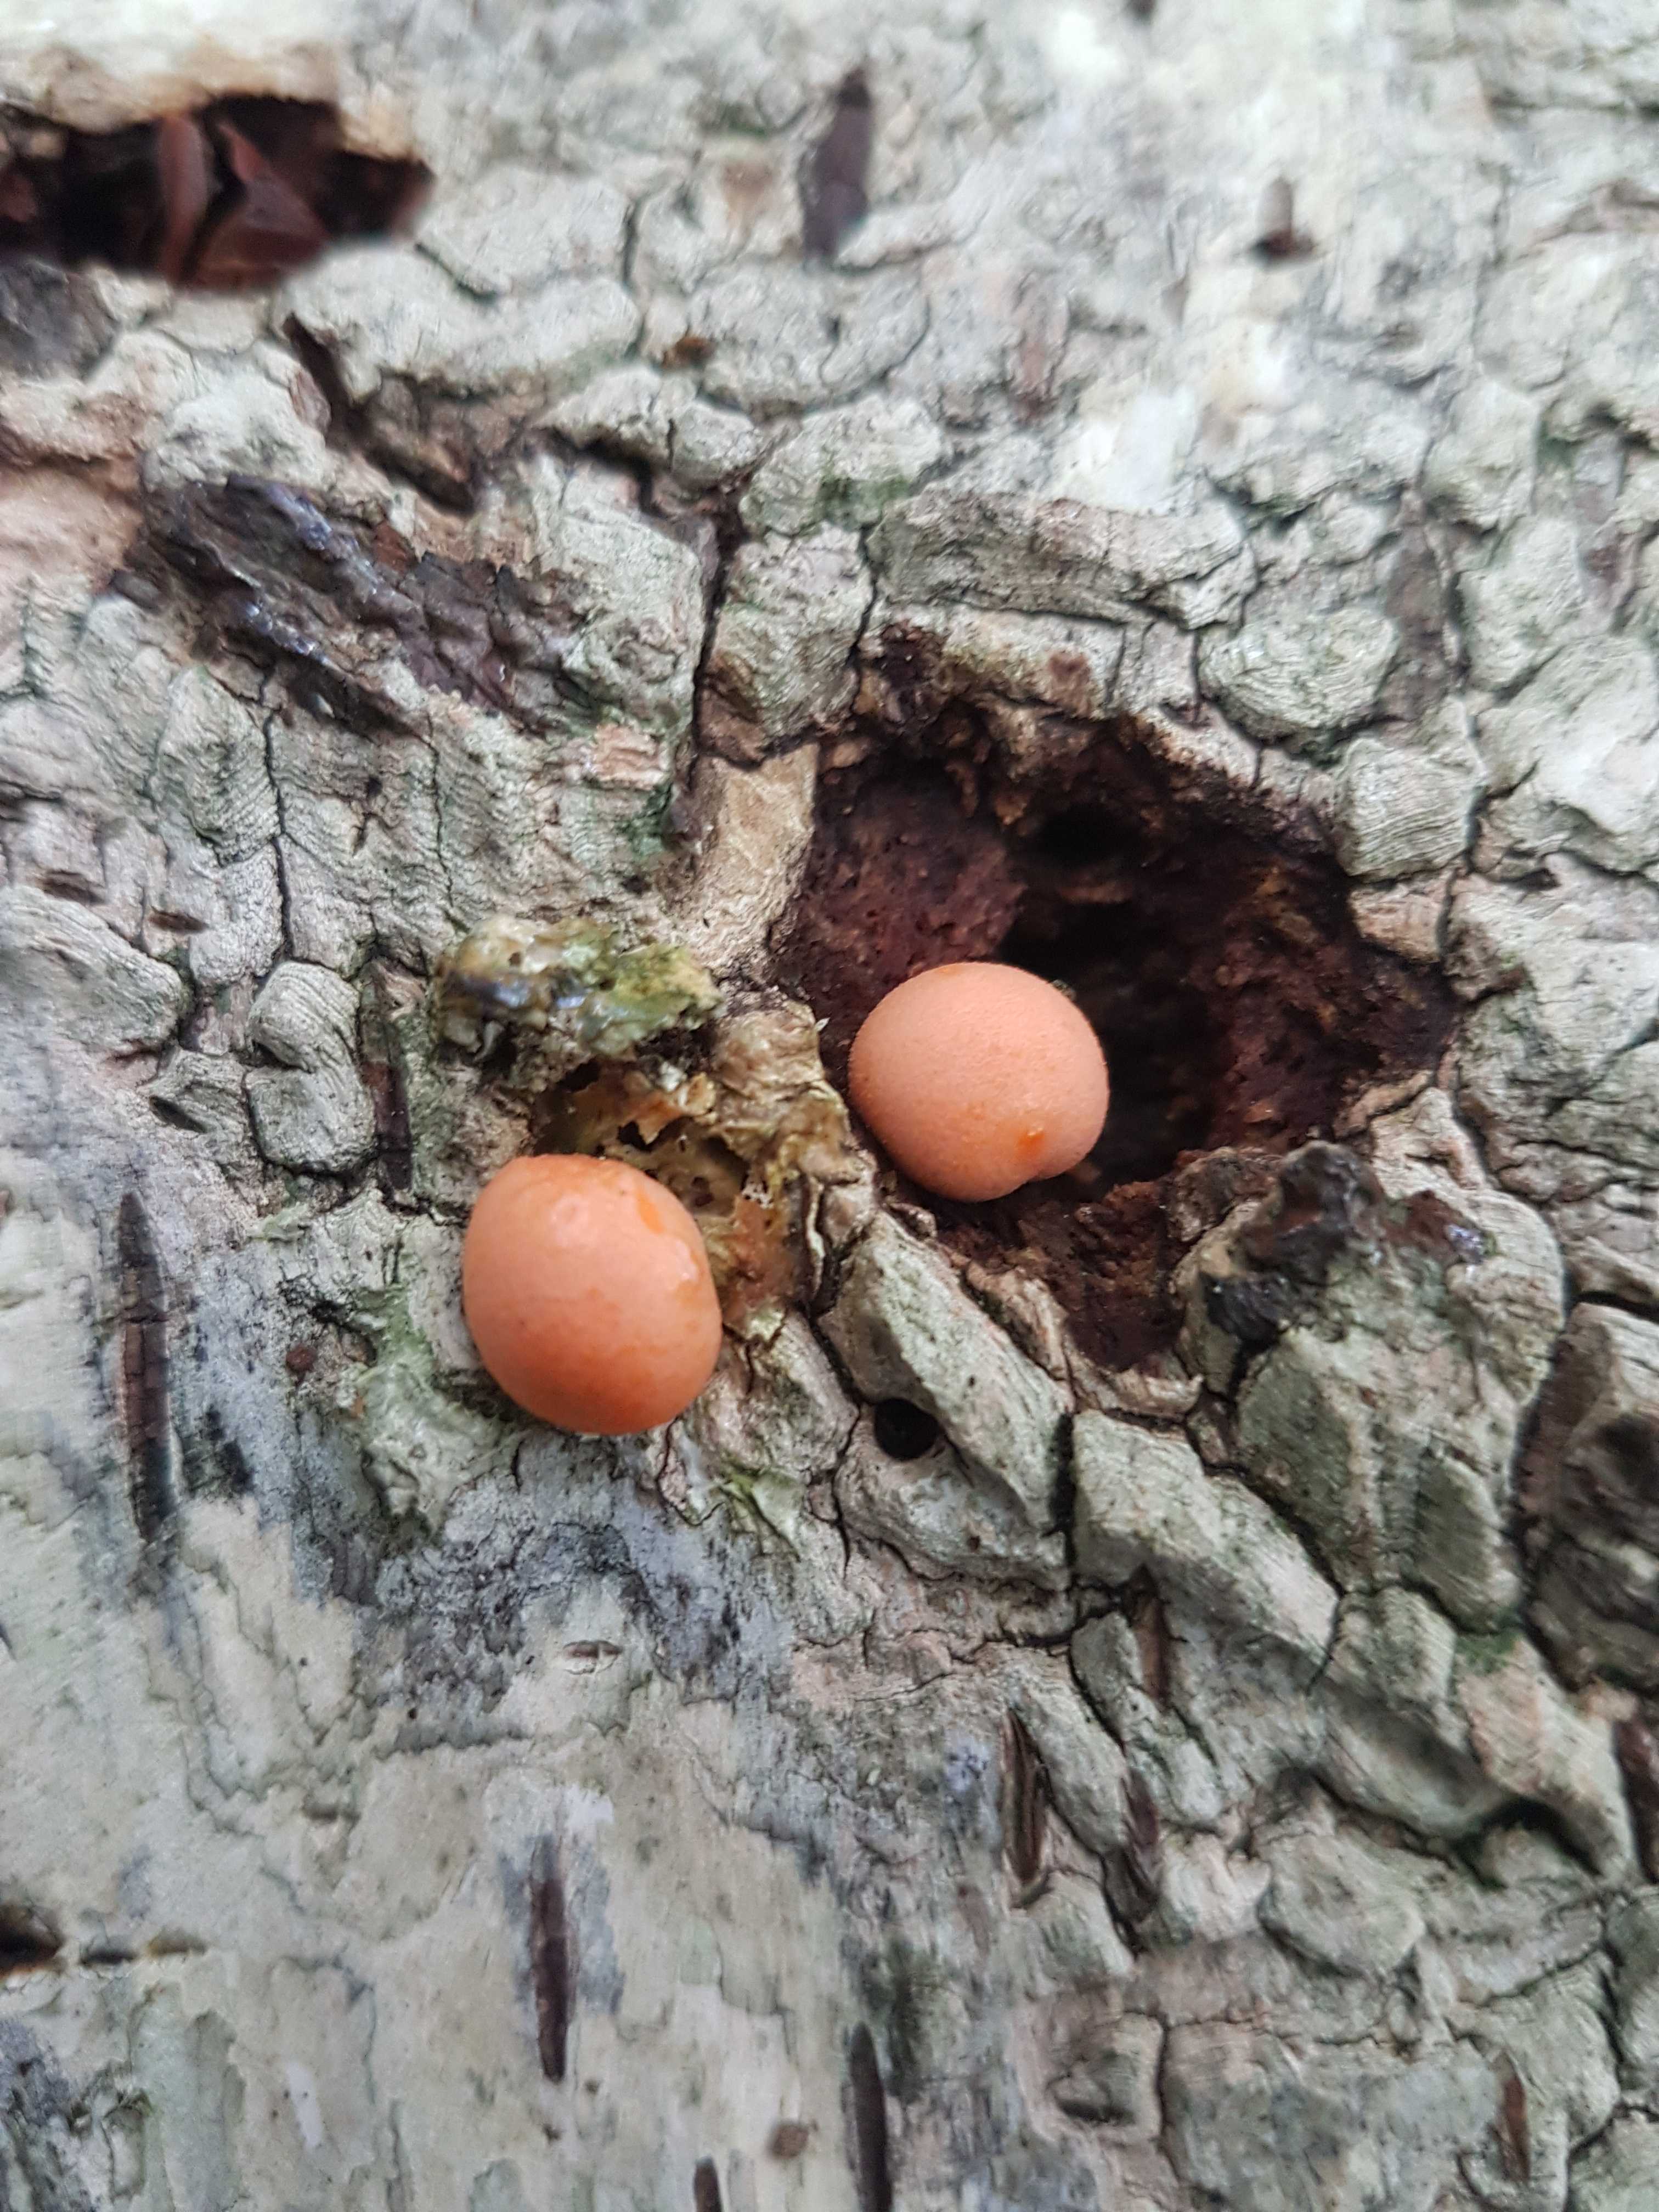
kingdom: Protozoa
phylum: Mycetozoa
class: Myxomycetes
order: Cribrariales
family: Tubiferaceae
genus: Lycogala
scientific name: Lycogala epidendrum
